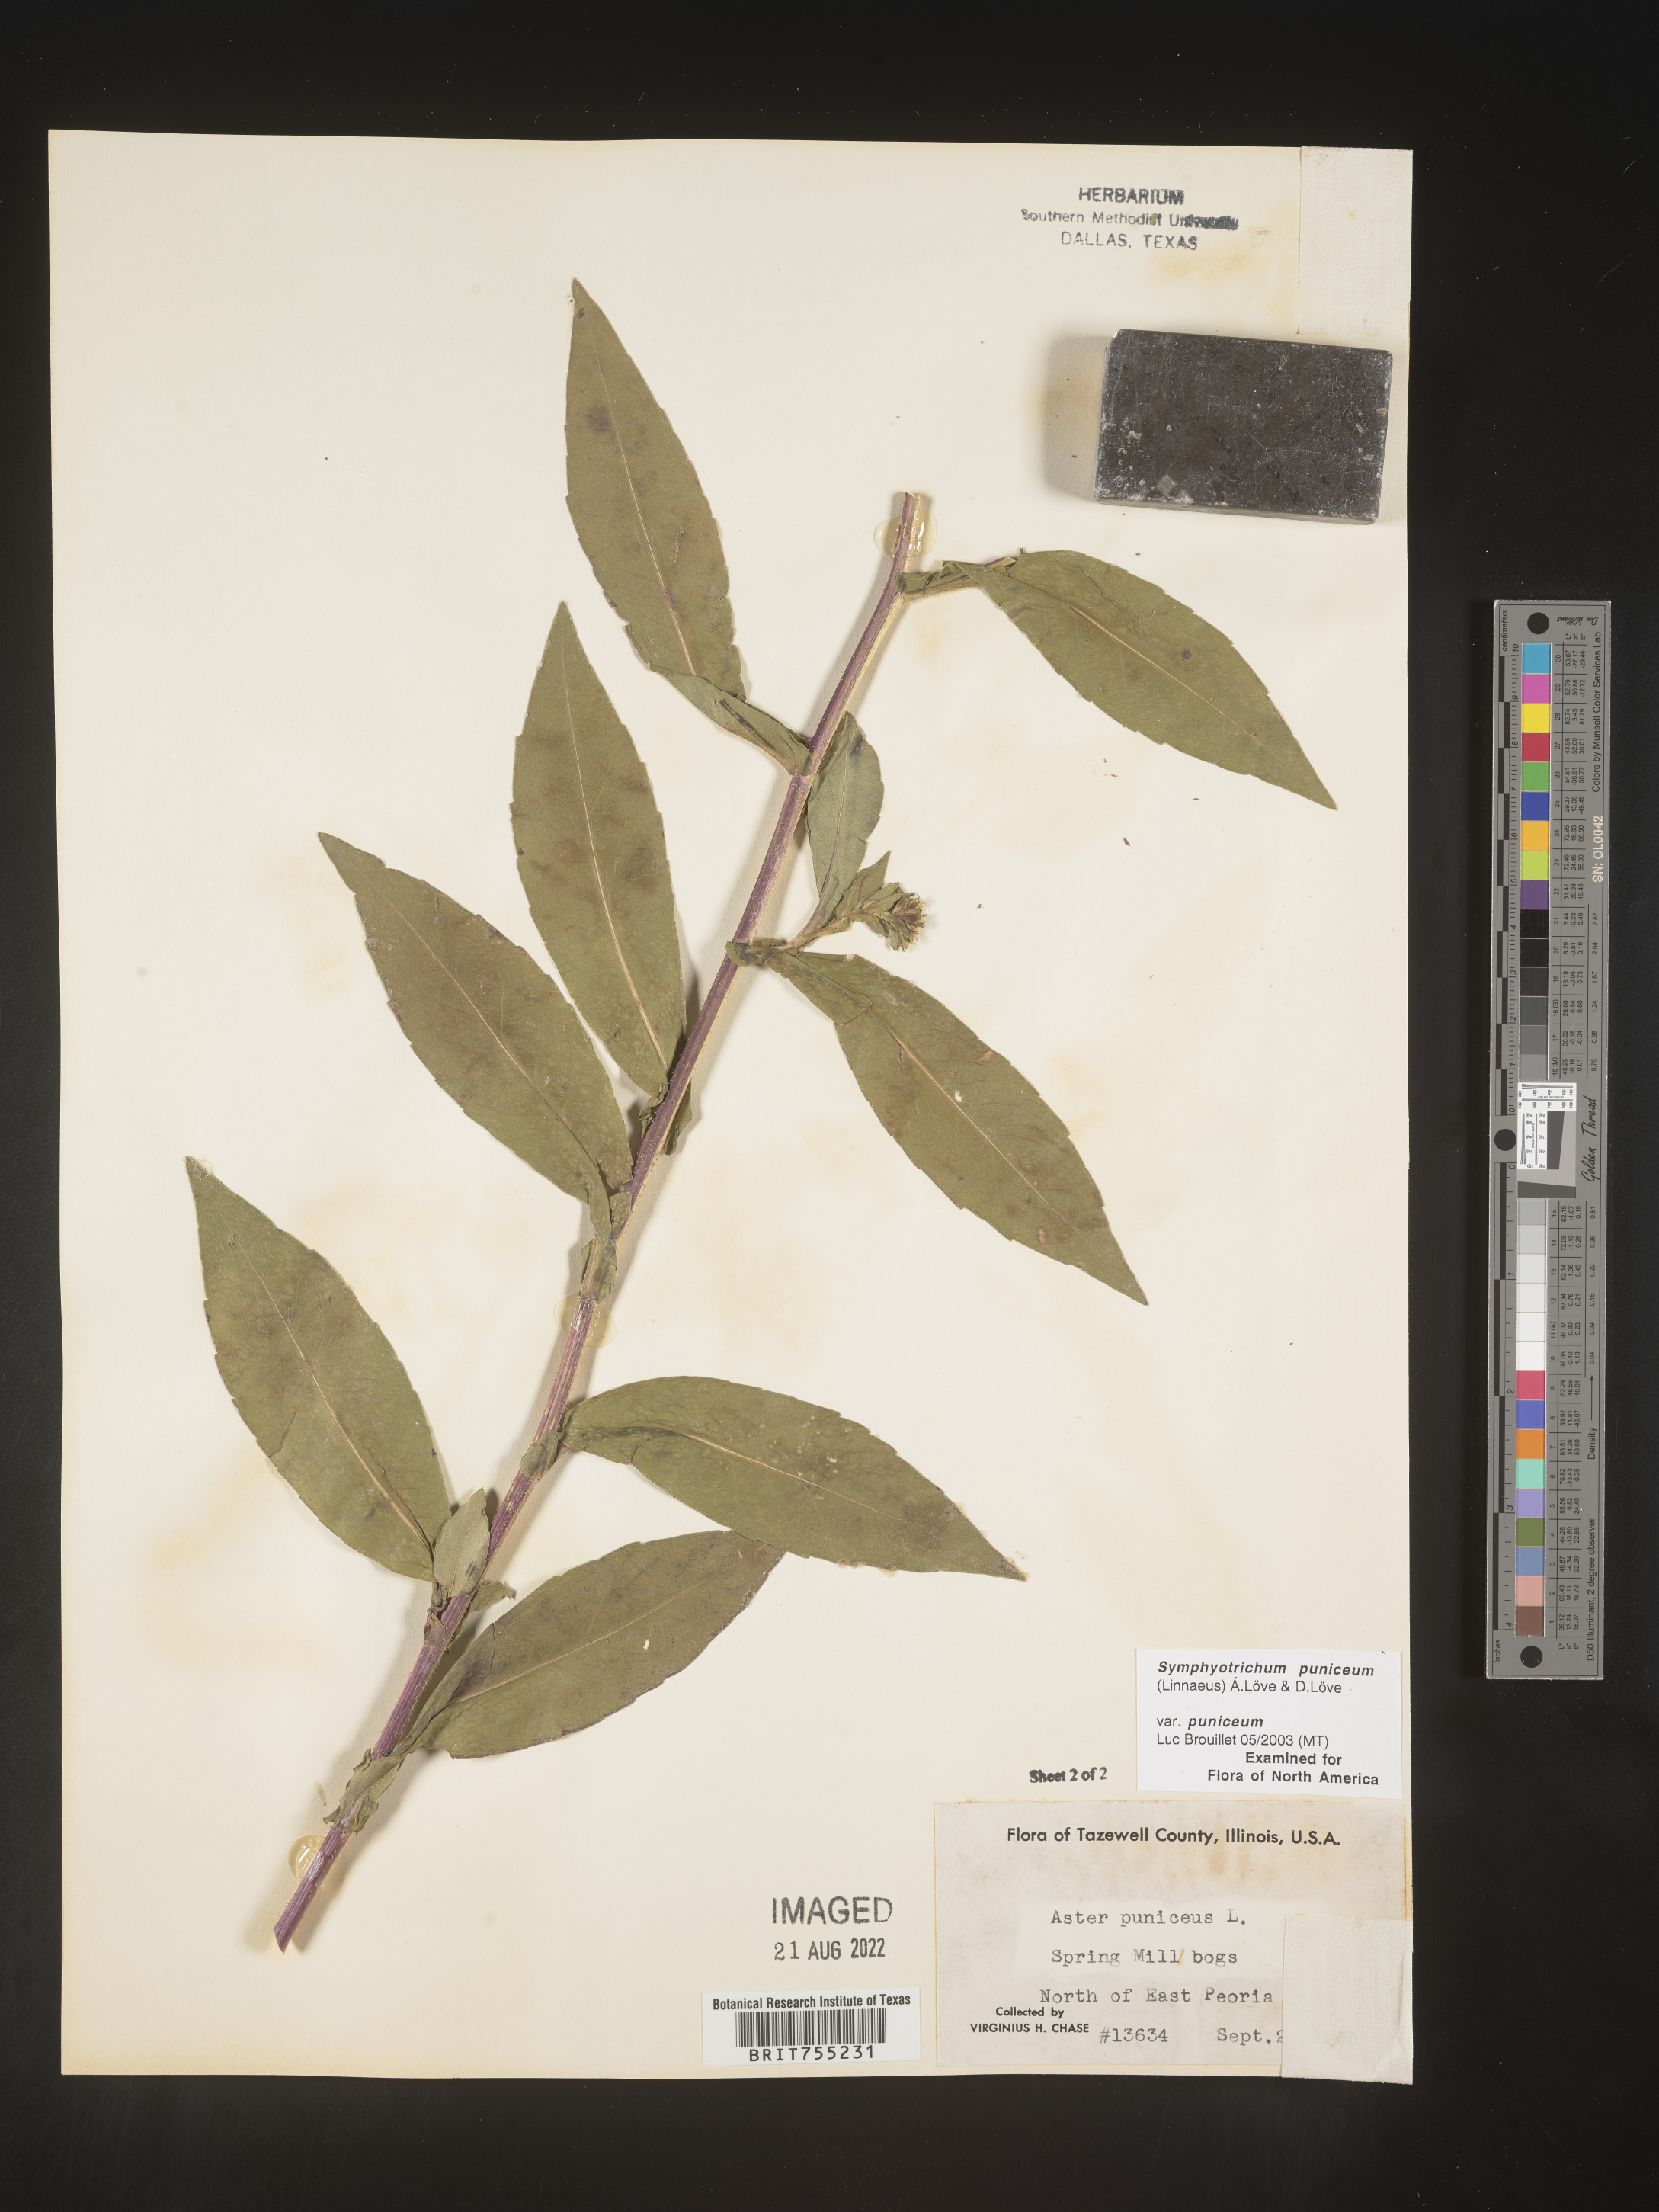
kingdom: Plantae
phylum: Tracheophyta
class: Magnoliopsida
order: Asterales
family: Asteraceae
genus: Symphyotrichum
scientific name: Symphyotrichum puniceum
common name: Bog aster
